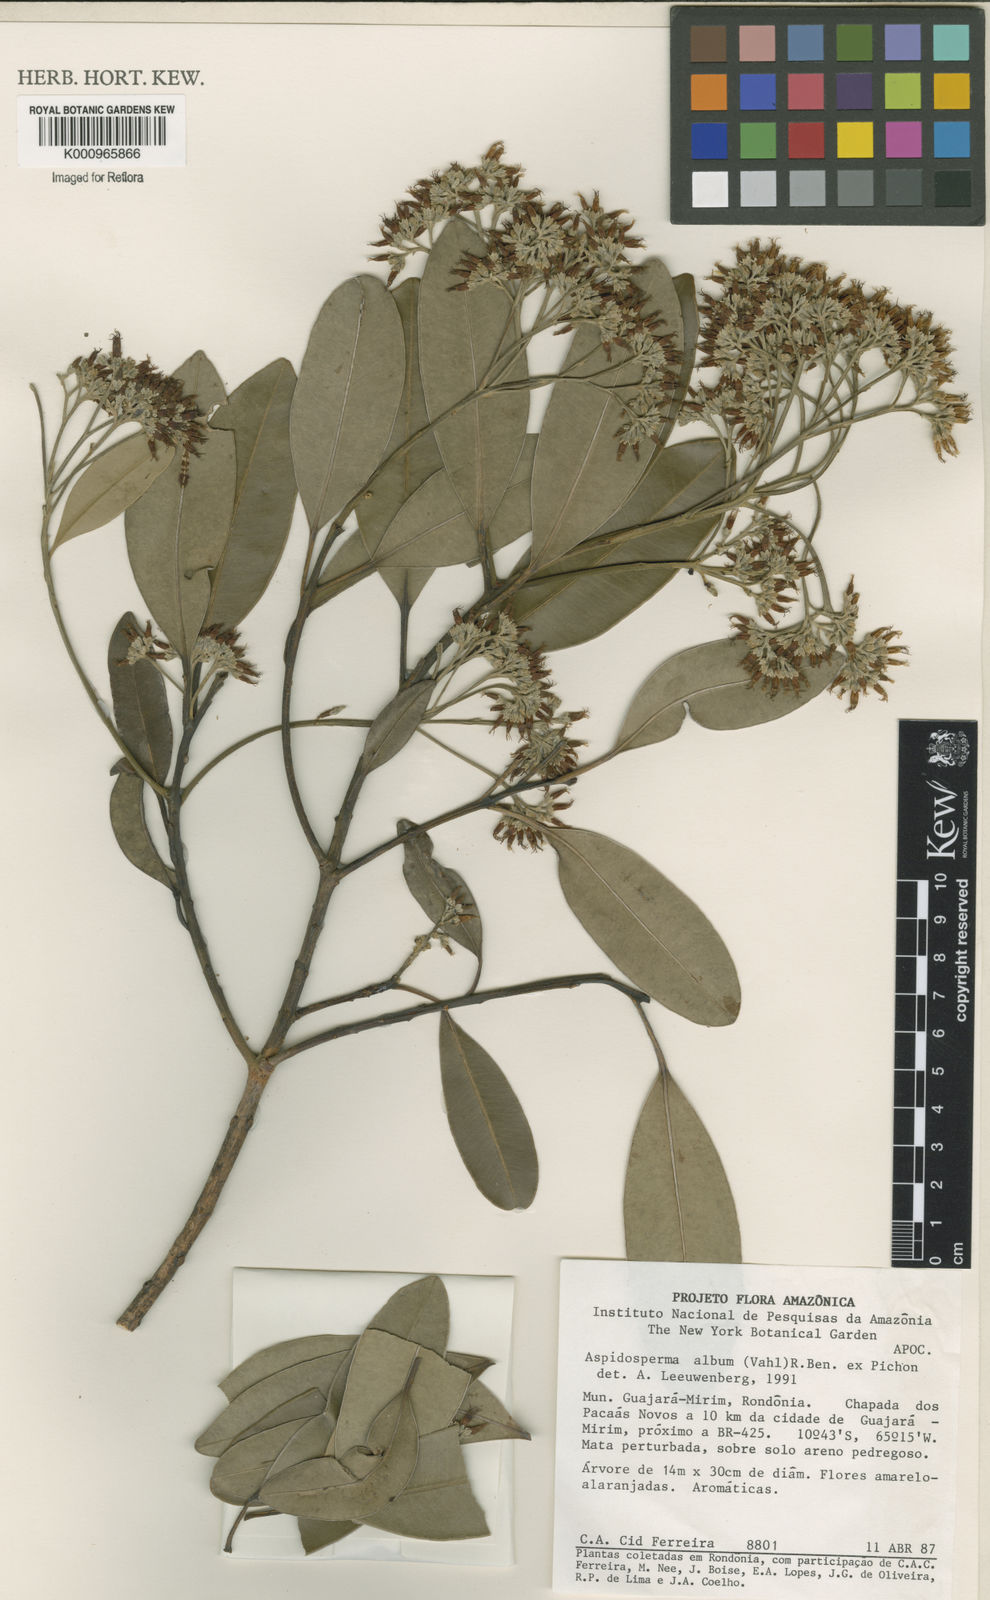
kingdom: Plantae
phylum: Tracheophyta
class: Magnoliopsida
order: Gentianales
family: Apocynaceae
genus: Aspidosperma
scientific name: Aspidosperma album
